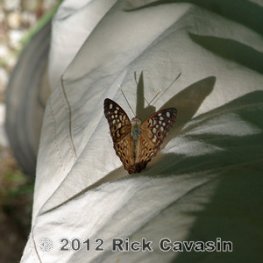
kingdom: Animalia
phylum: Arthropoda
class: Insecta
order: Lepidoptera
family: Nymphalidae
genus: Asterocampa
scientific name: Asterocampa celtis
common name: Hackberry Emperor
